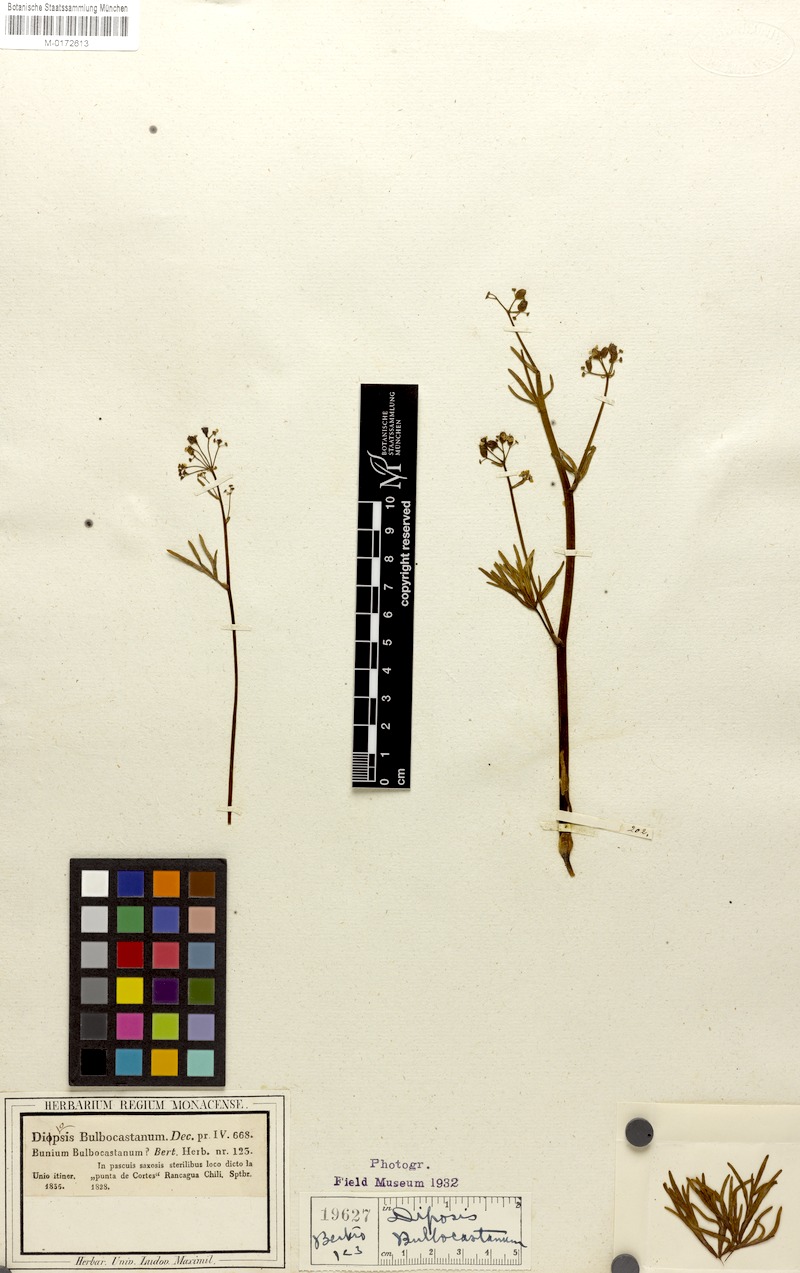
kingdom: Plantae
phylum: Tracheophyta
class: Magnoliopsida
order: Apiales
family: Apiaceae
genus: Diposis
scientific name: Diposis bulbocastanum
